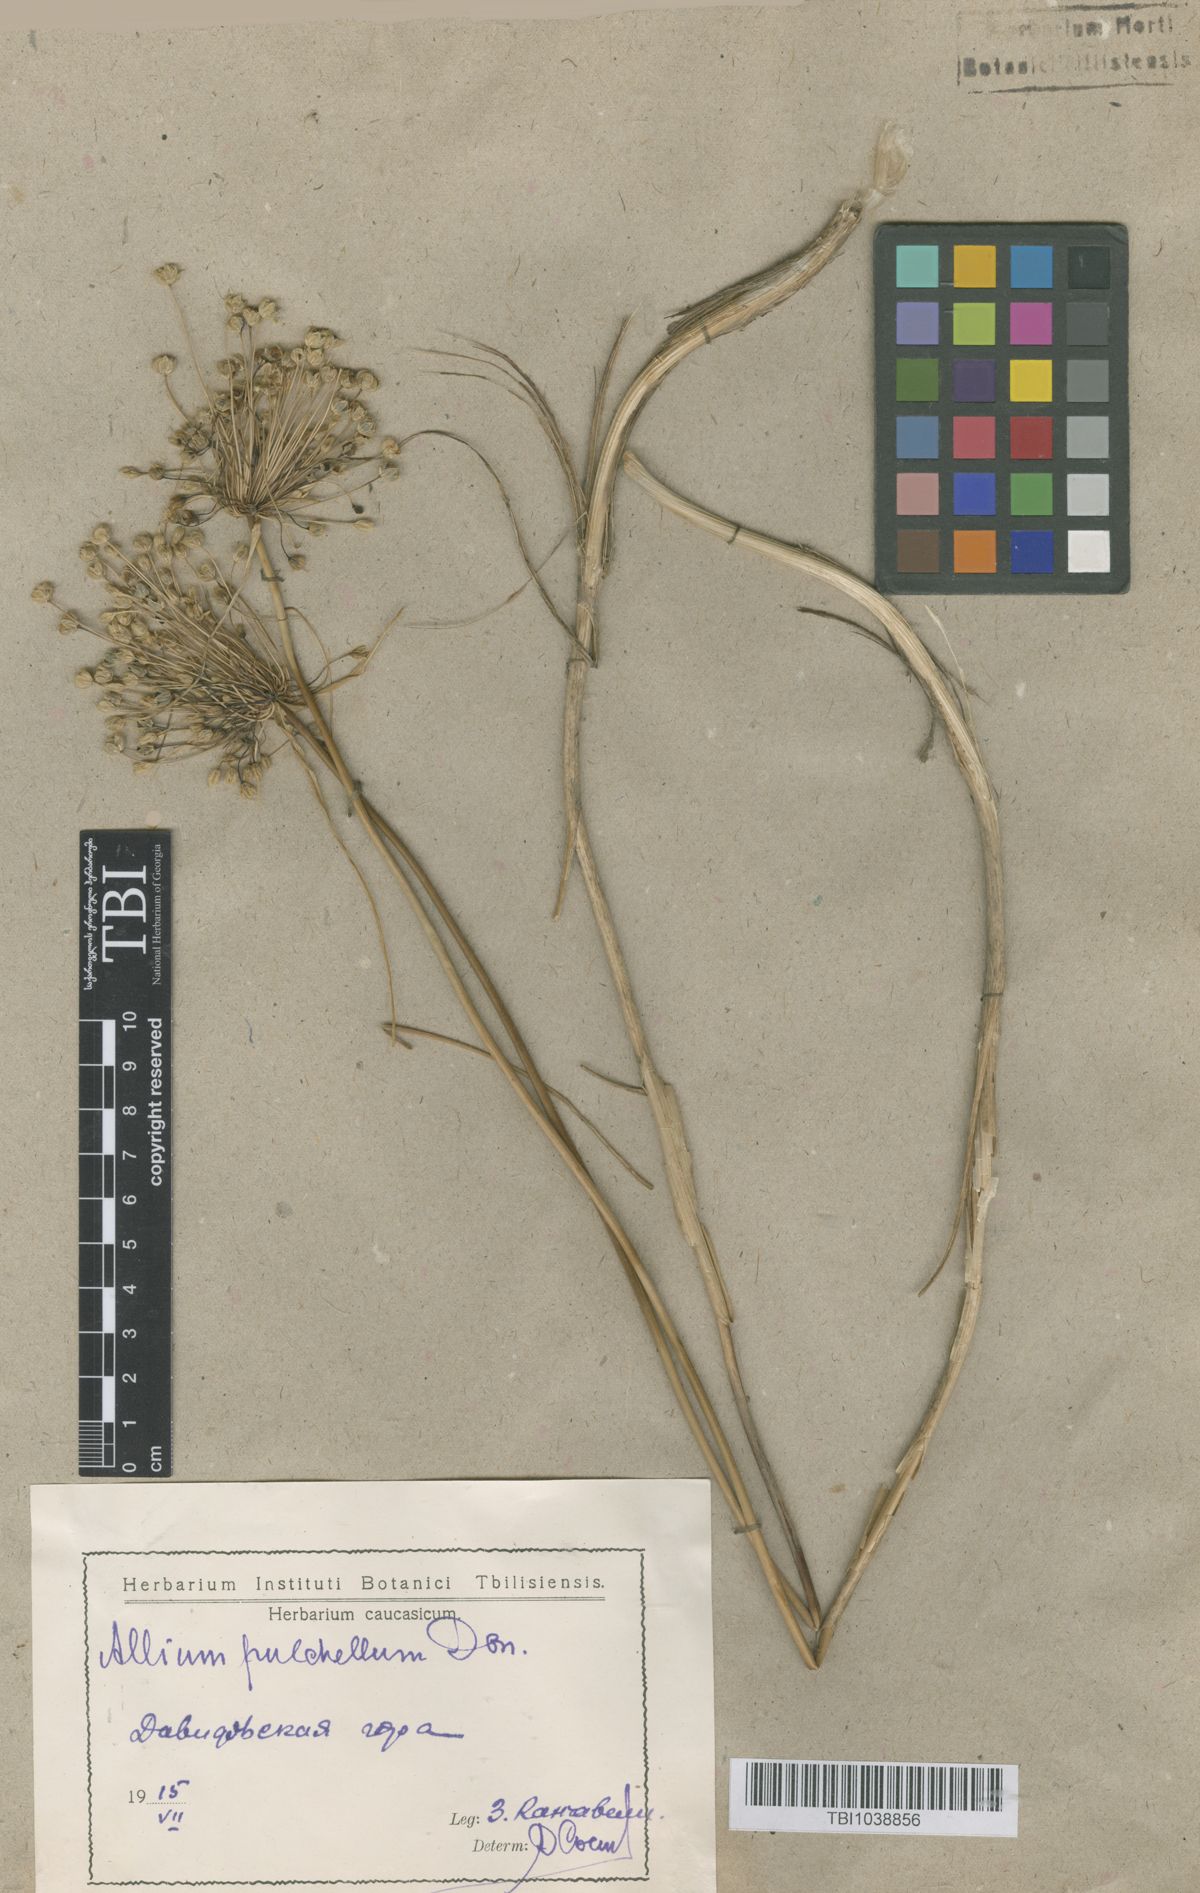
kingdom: Plantae
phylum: Tracheophyta
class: Liliopsida
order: Asparagales
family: Amaryllidaceae
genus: Allium
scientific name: Allium flavum
